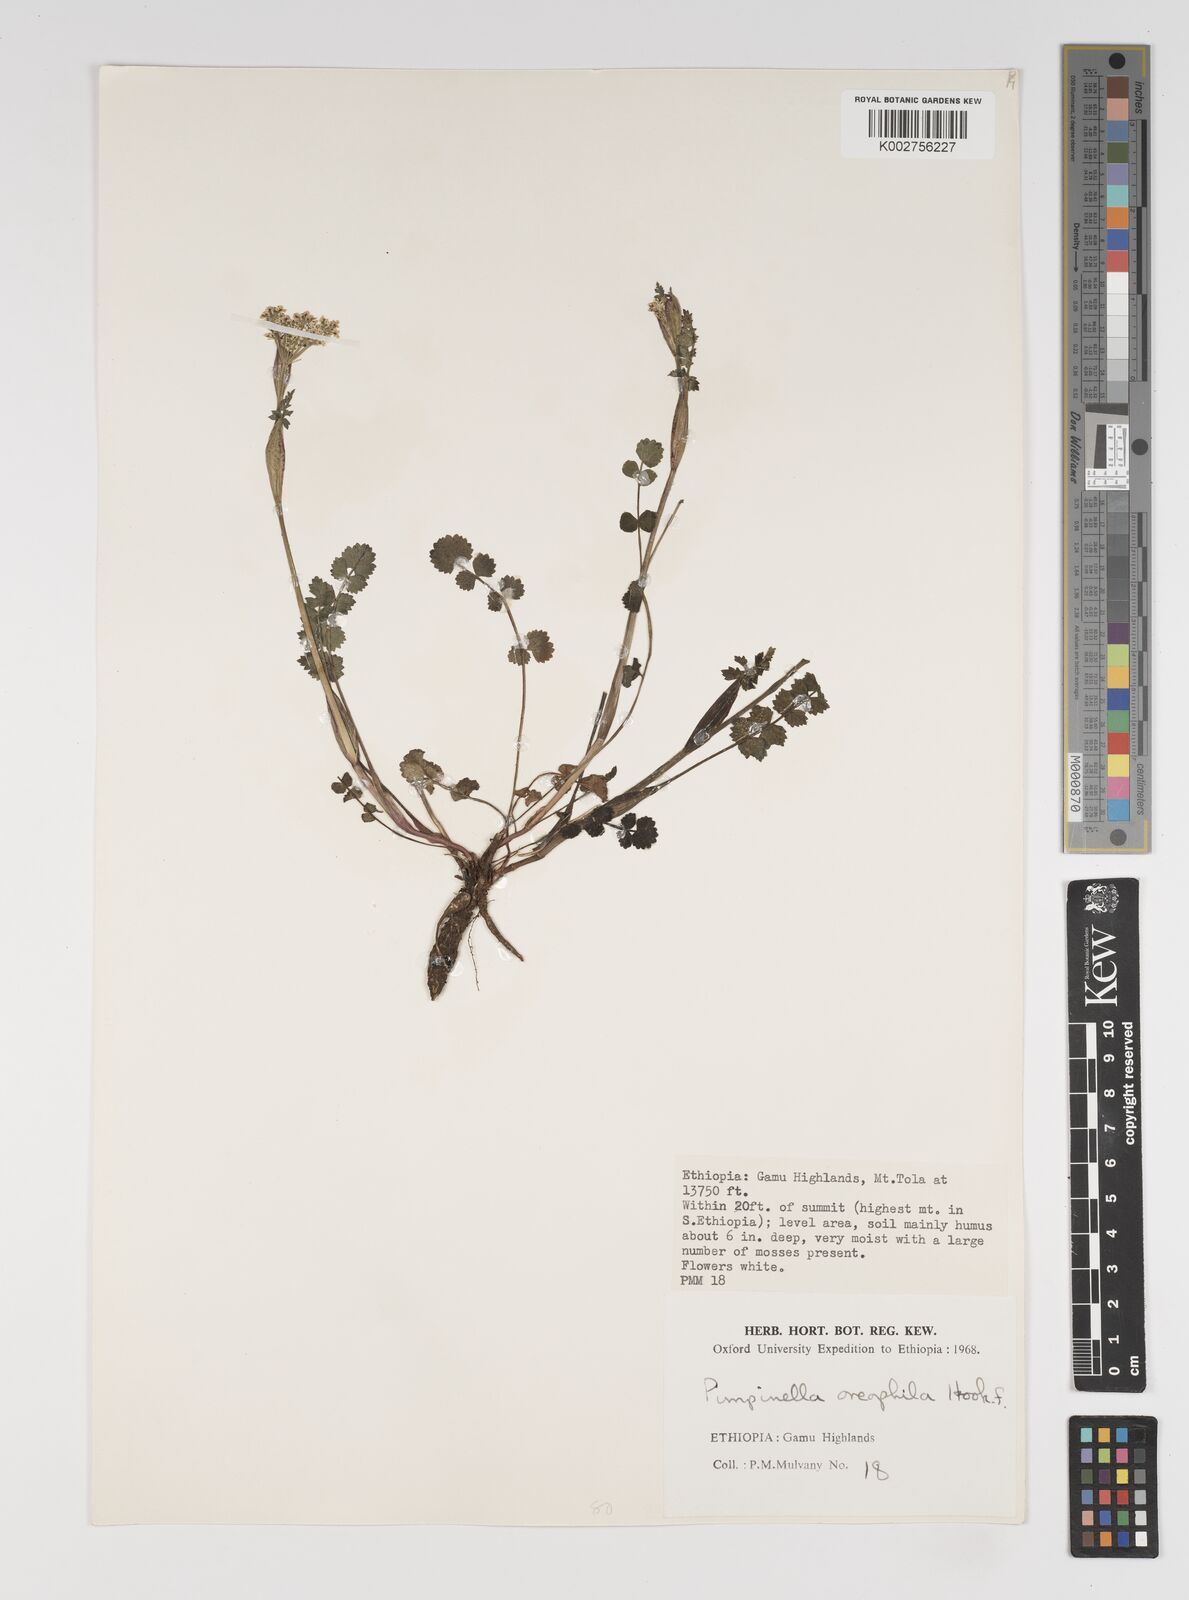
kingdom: Plantae
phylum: Tracheophyta
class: Magnoliopsida
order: Apiales
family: Apiaceae
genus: Pimpinella
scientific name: Pimpinella oreophila
